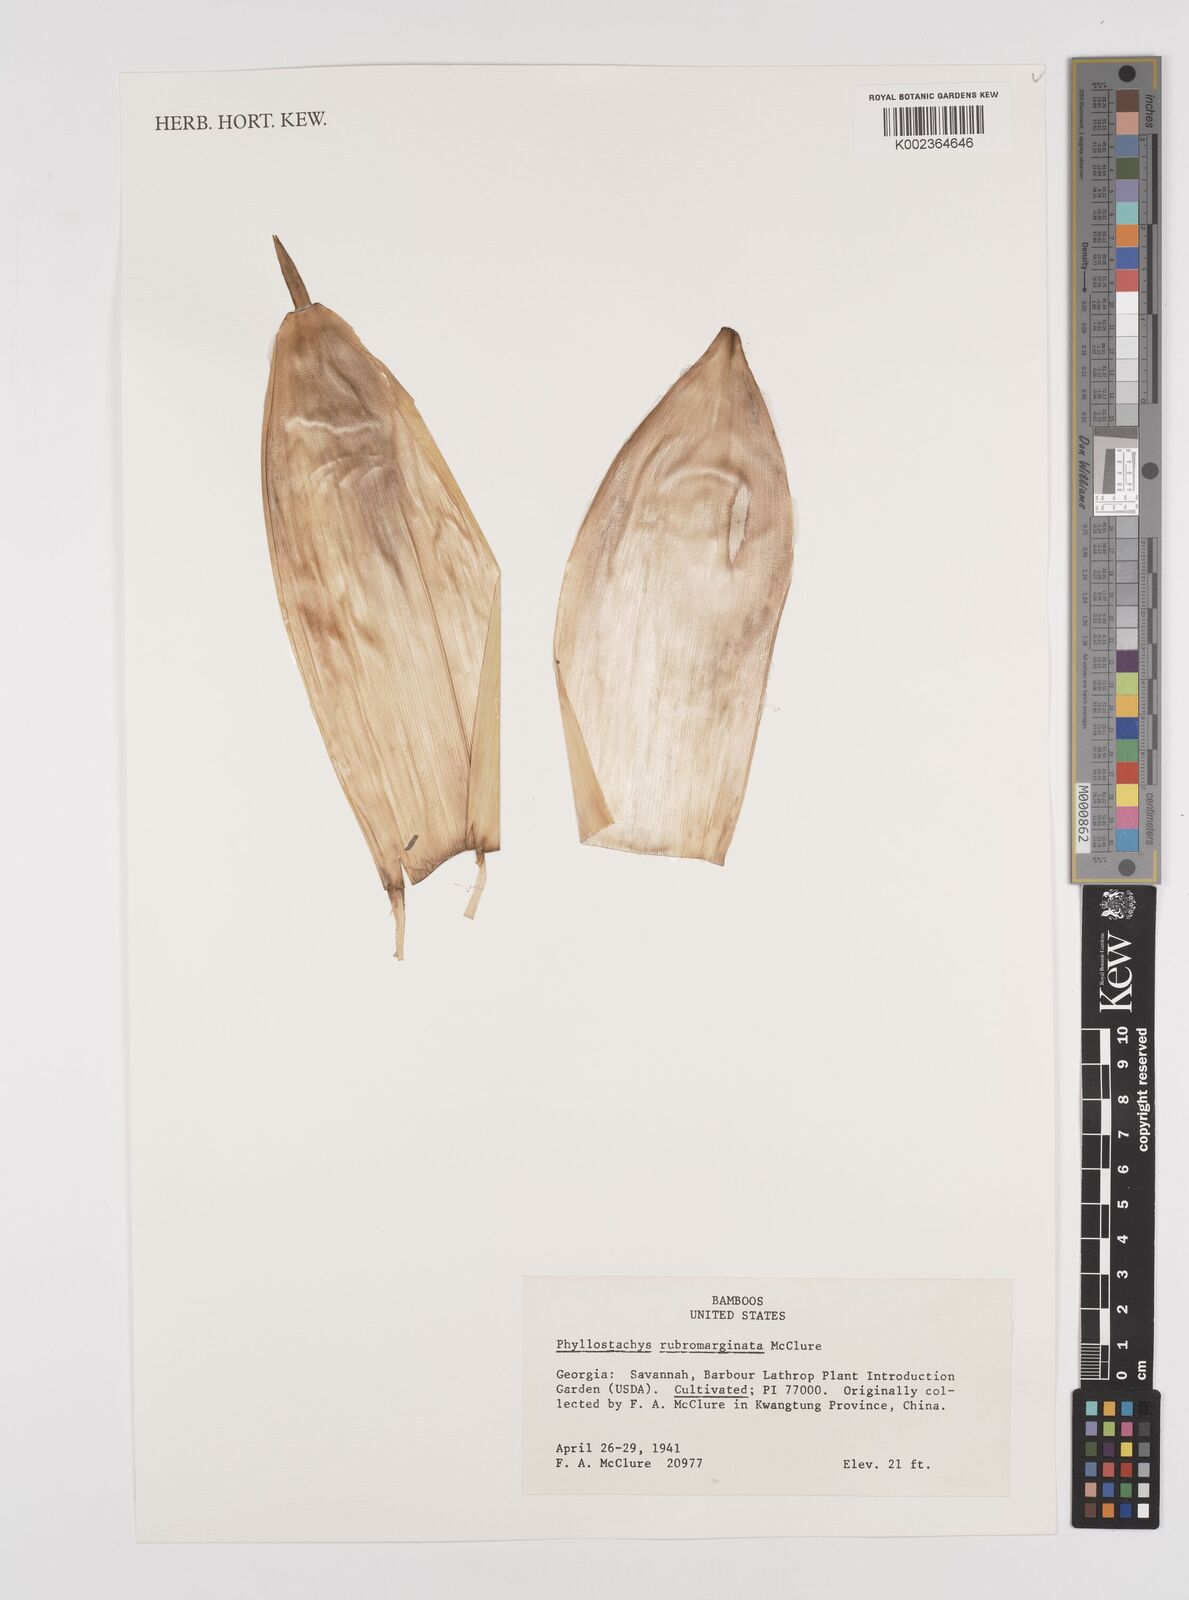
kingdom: Plantae
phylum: Tracheophyta
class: Liliopsida
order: Poales
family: Poaceae
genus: Phyllostachys
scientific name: Phyllostachys rubromarginata
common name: Reddish bamboo
